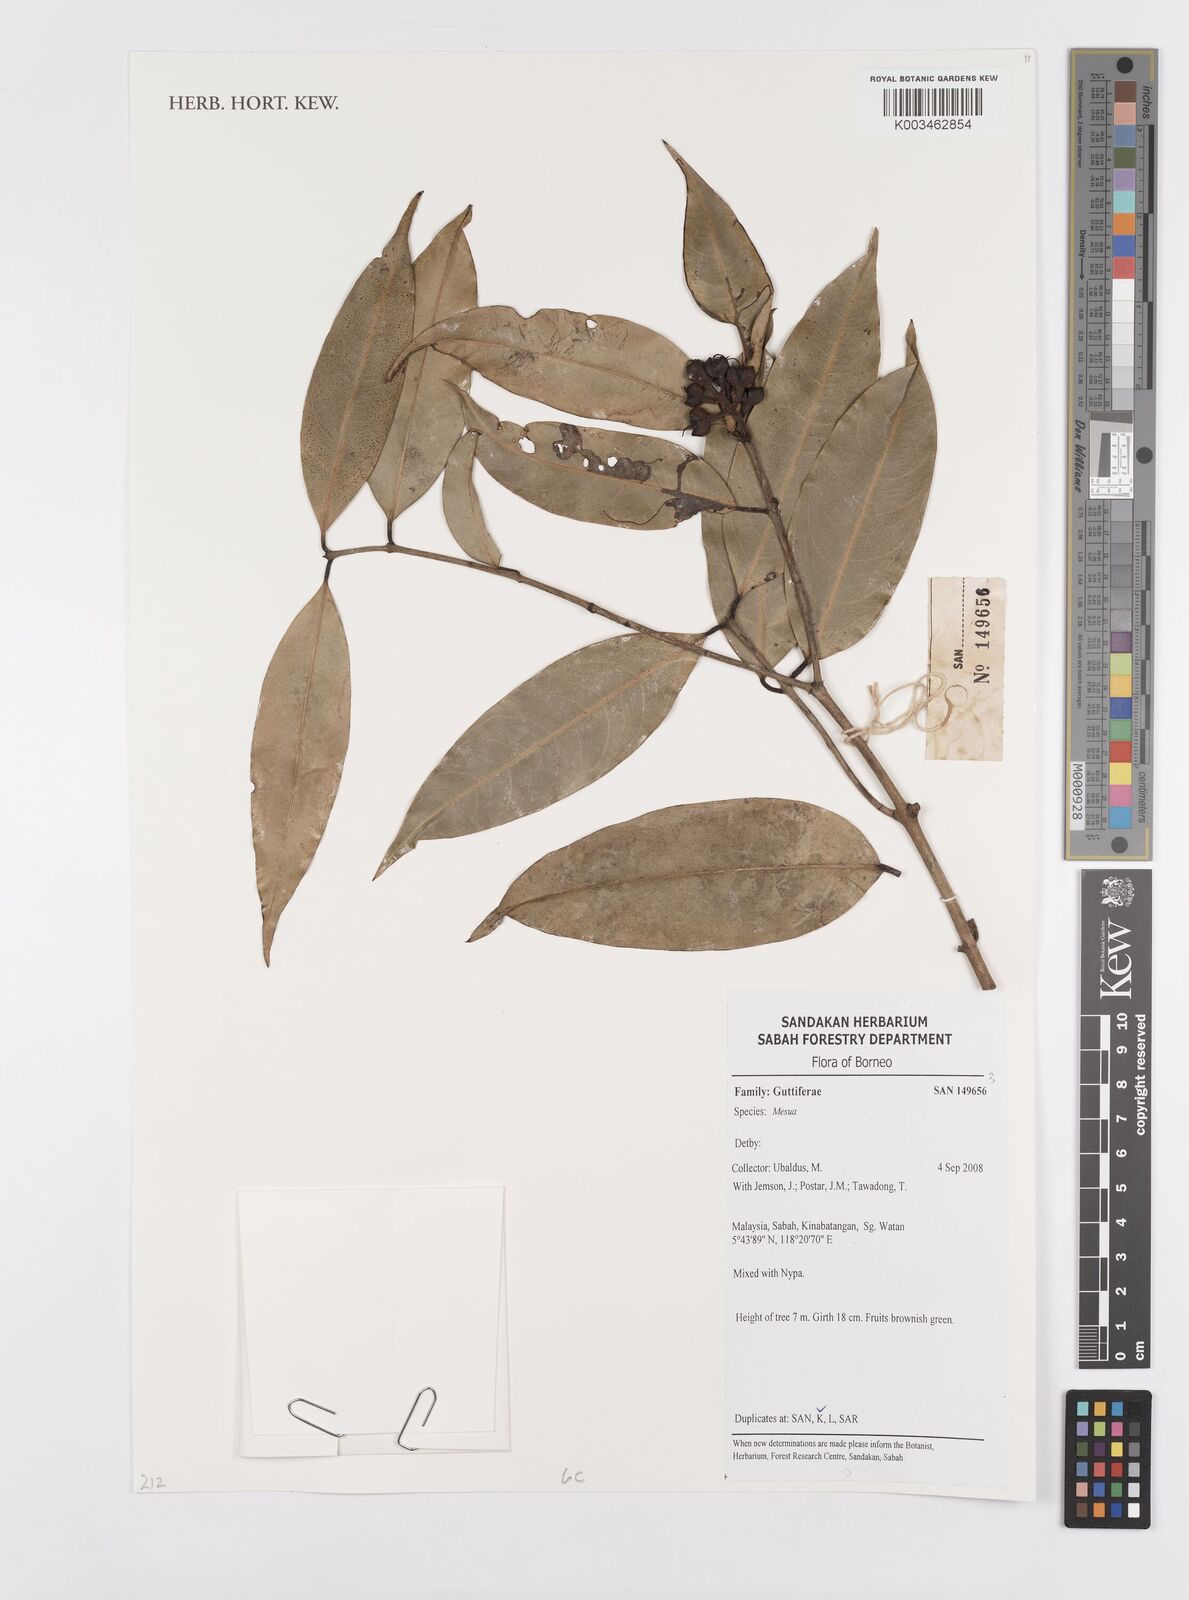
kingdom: Plantae
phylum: Tracheophyta
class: Magnoliopsida
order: Malpighiales
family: Calophyllaceae
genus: Mesua
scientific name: Mesua
